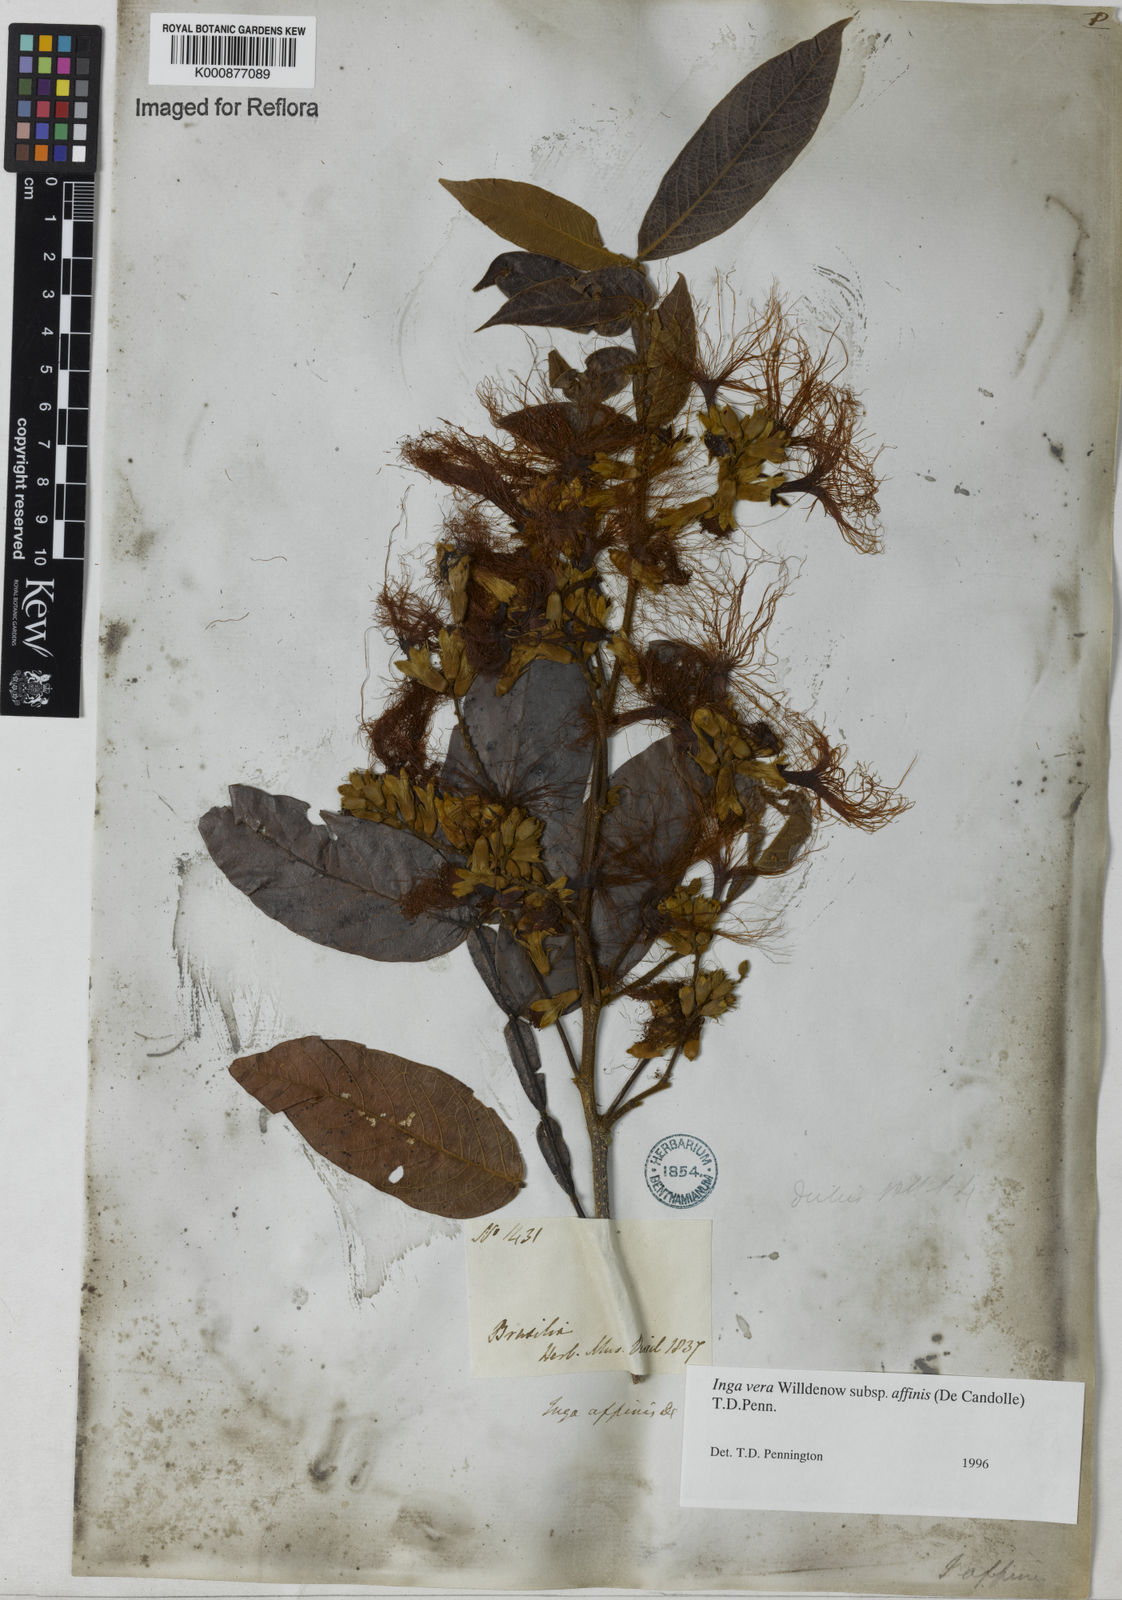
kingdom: Plantae
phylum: Tracheophyta
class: Magnoliopsida
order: Fabales
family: Fabaceae
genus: Inga
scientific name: Inga affinis
